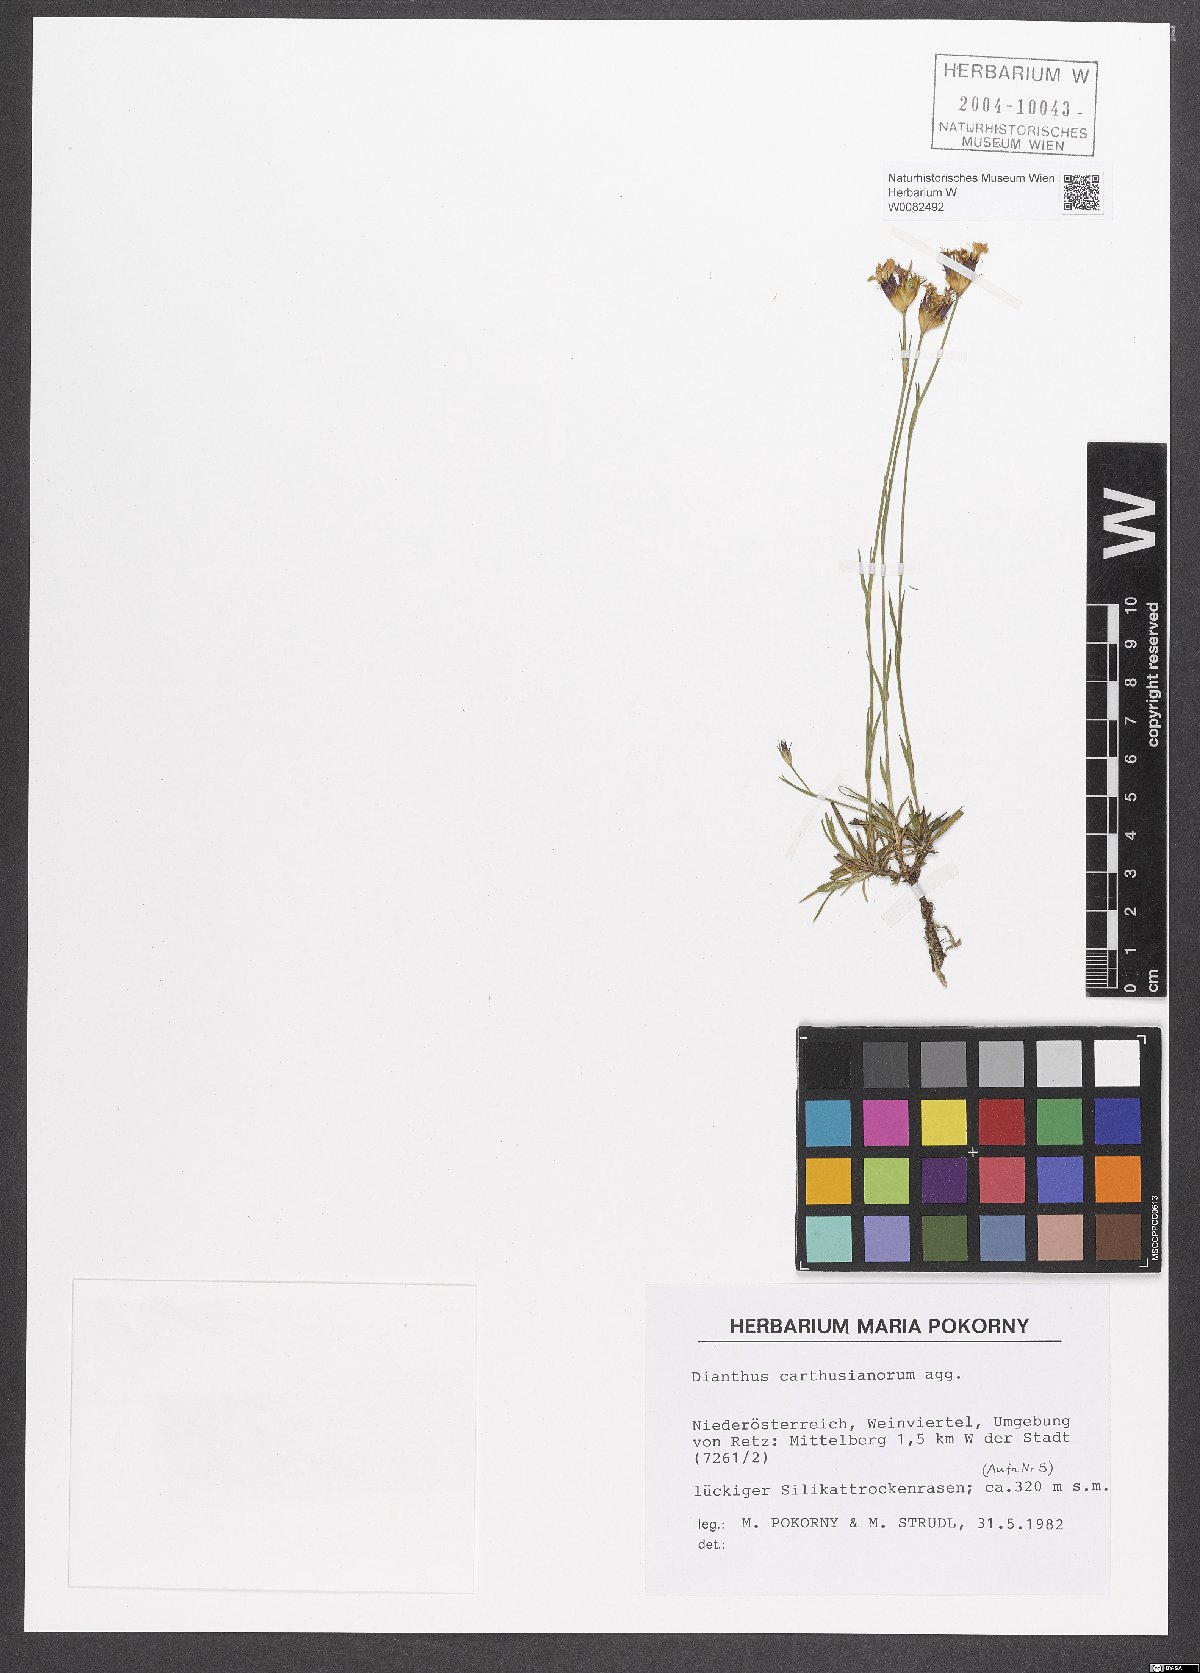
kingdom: Plantae
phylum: Tracheophyta
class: Magnoliopsida
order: Caryophyllales
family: Caryophyllaceae
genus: Dianthus
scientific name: Dianthus carthusianorum
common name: Carthusian pink
